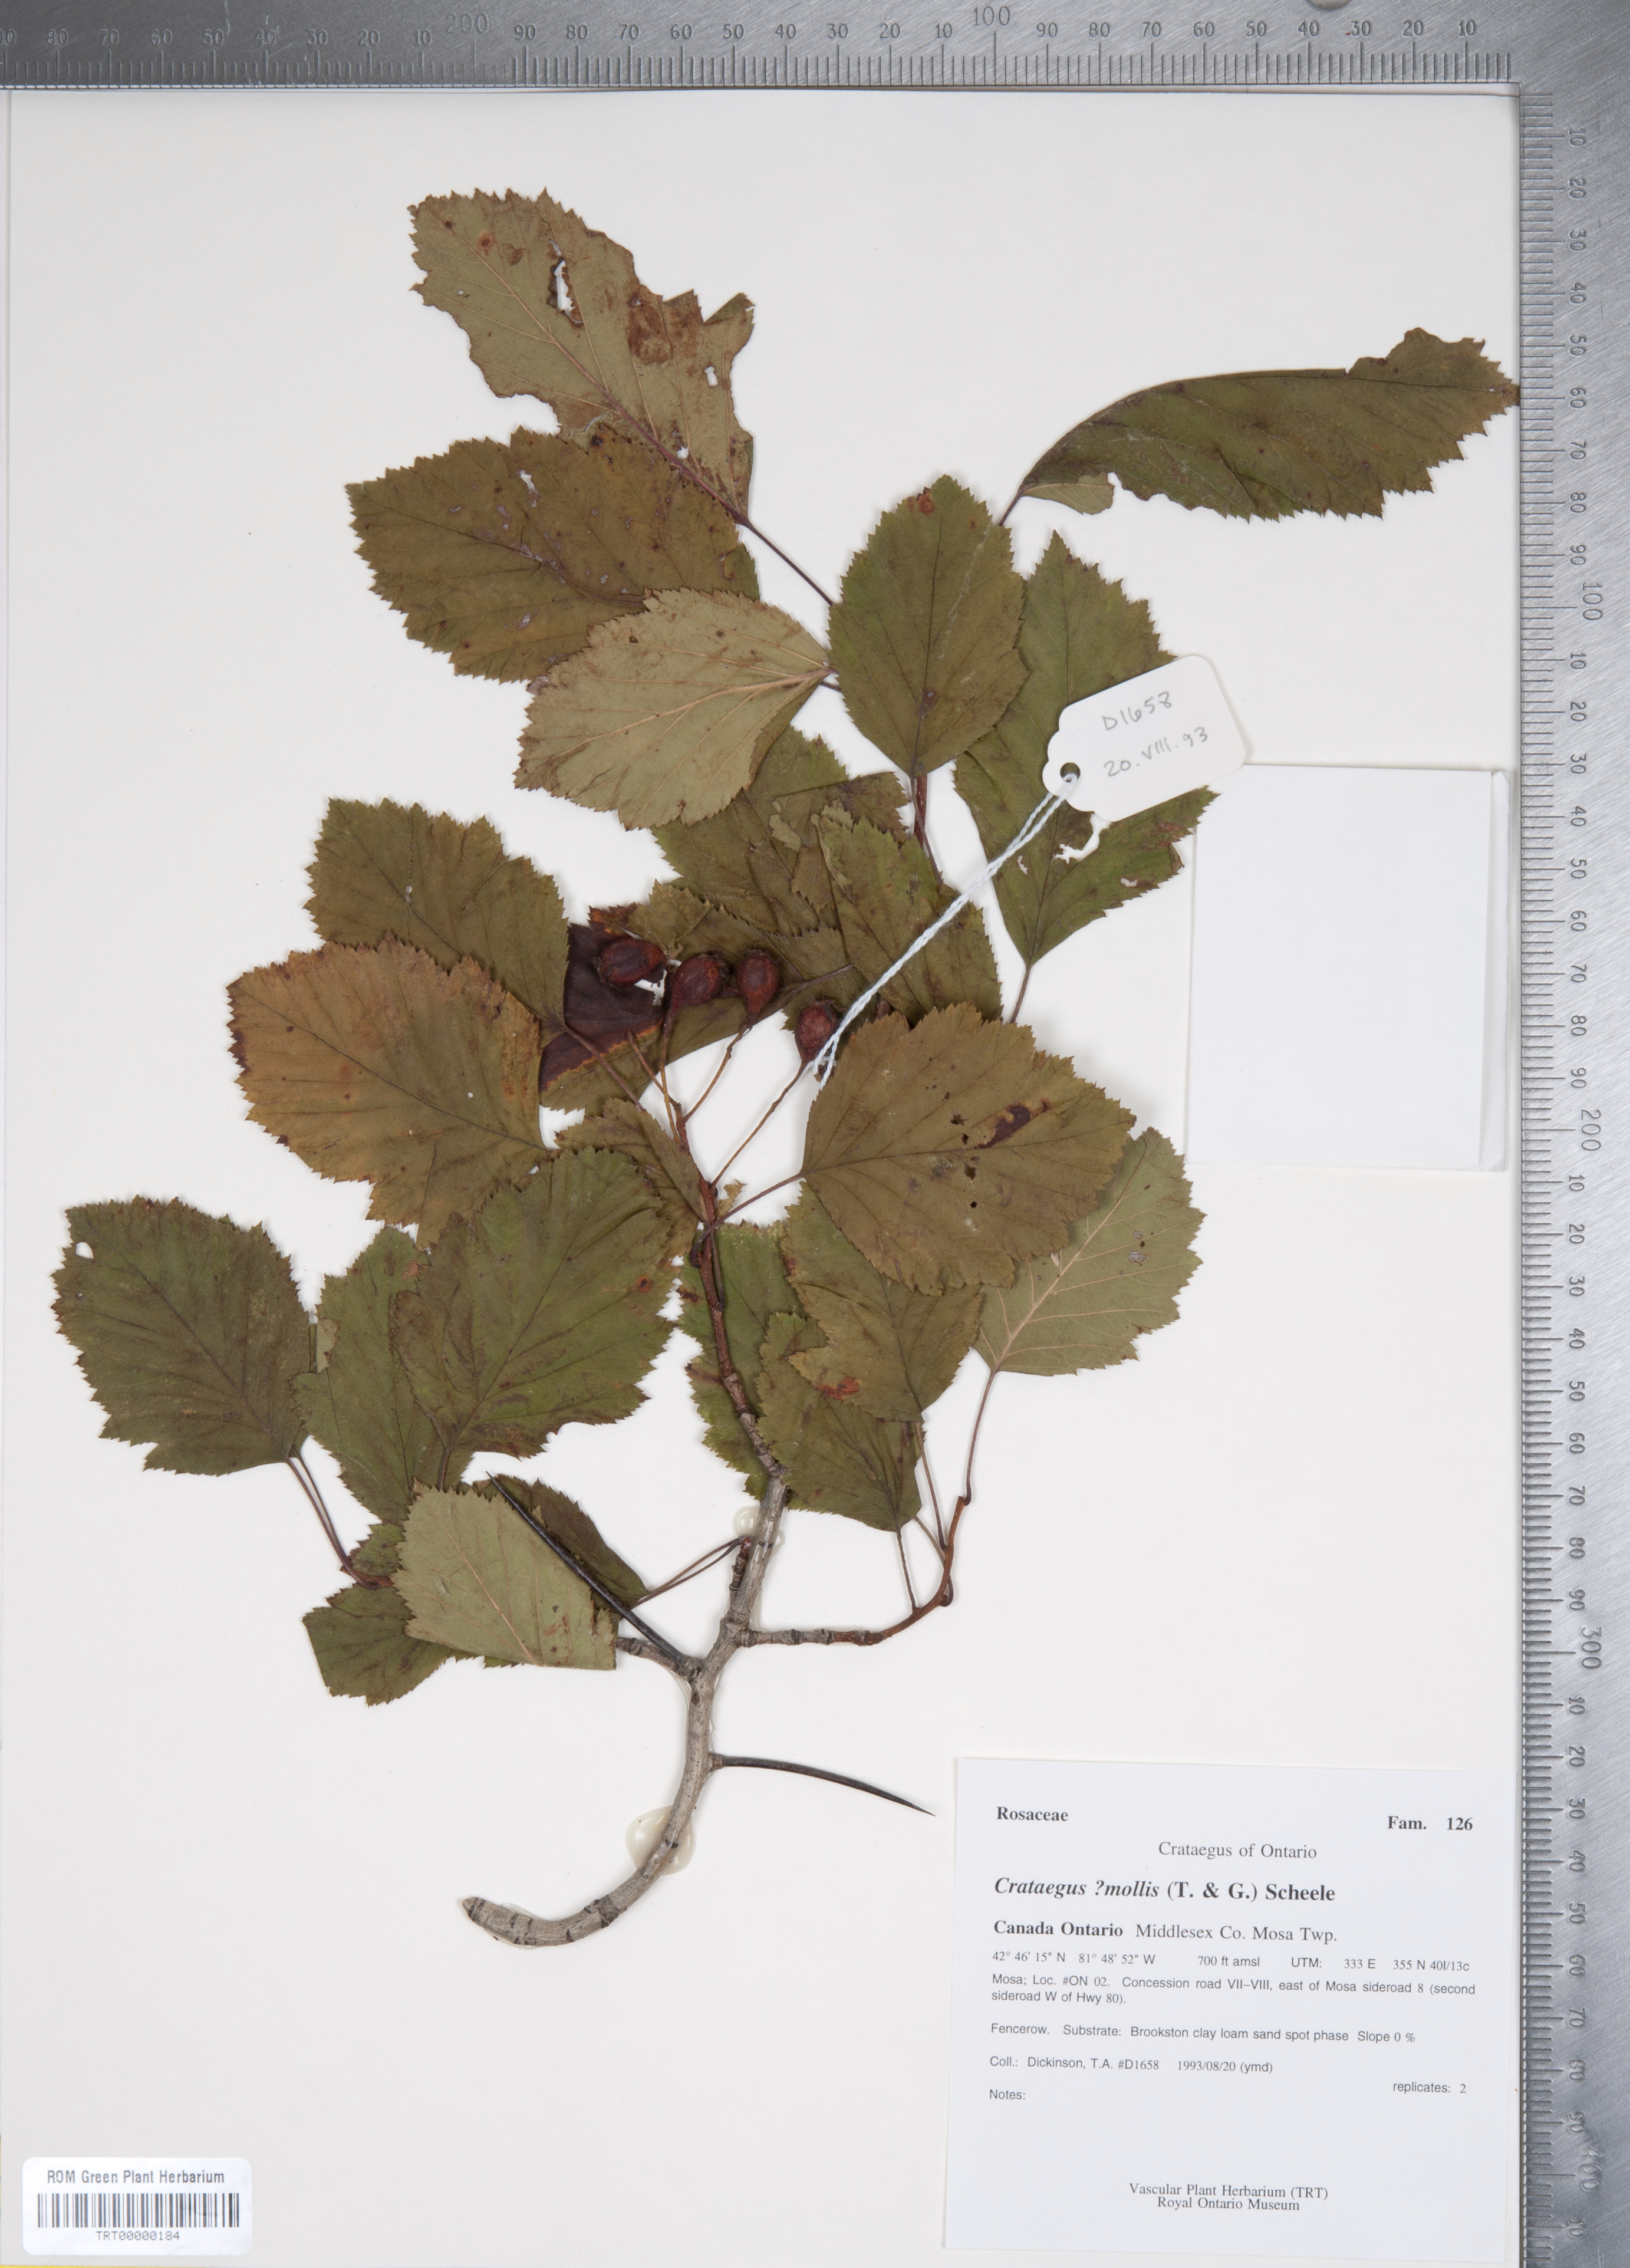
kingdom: Plantae
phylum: Tracheophyta
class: Magnoliopsida
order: Rosales
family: Rosaceae
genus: Crataegus
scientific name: Crataegus mollis
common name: Downy hawthorn
